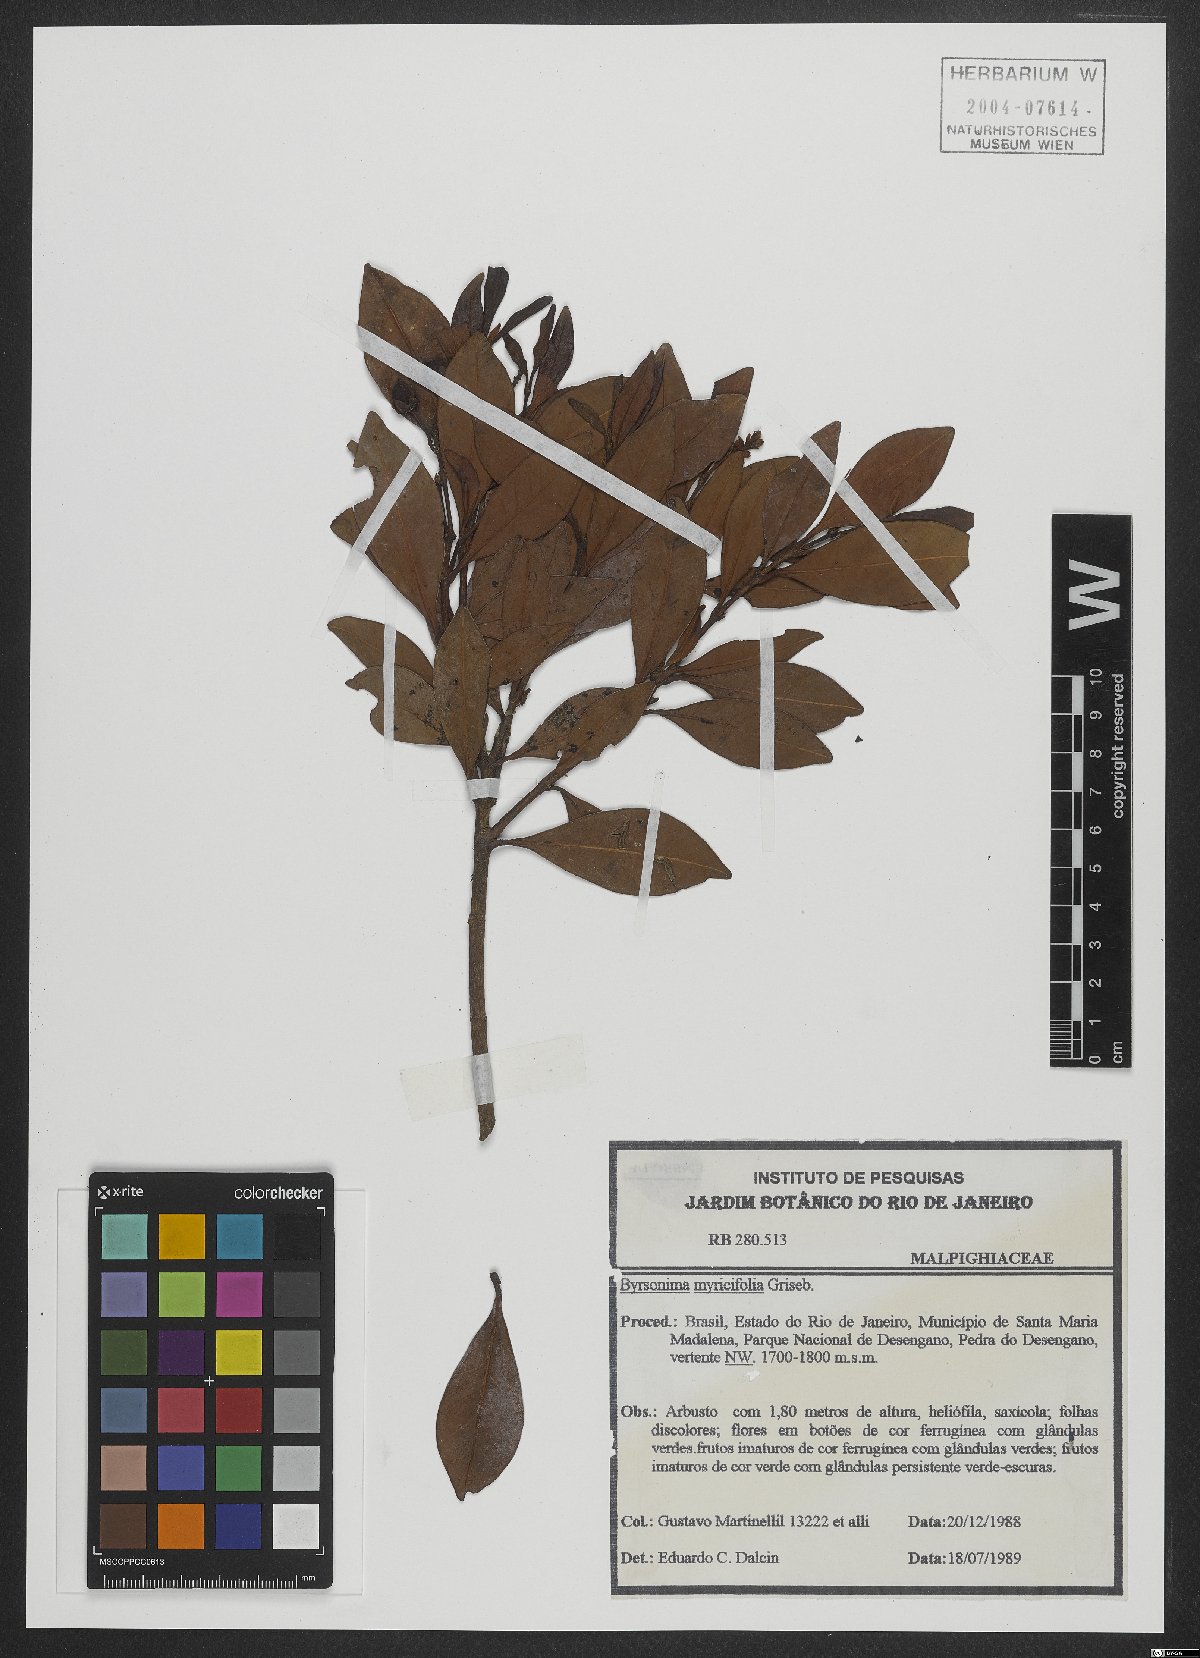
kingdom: Plantae
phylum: Tracheophyta
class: Magnoliopsida
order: Malpighiales
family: Malpighiaceae
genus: Byrsonima
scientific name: Byrsonima myricifolia
